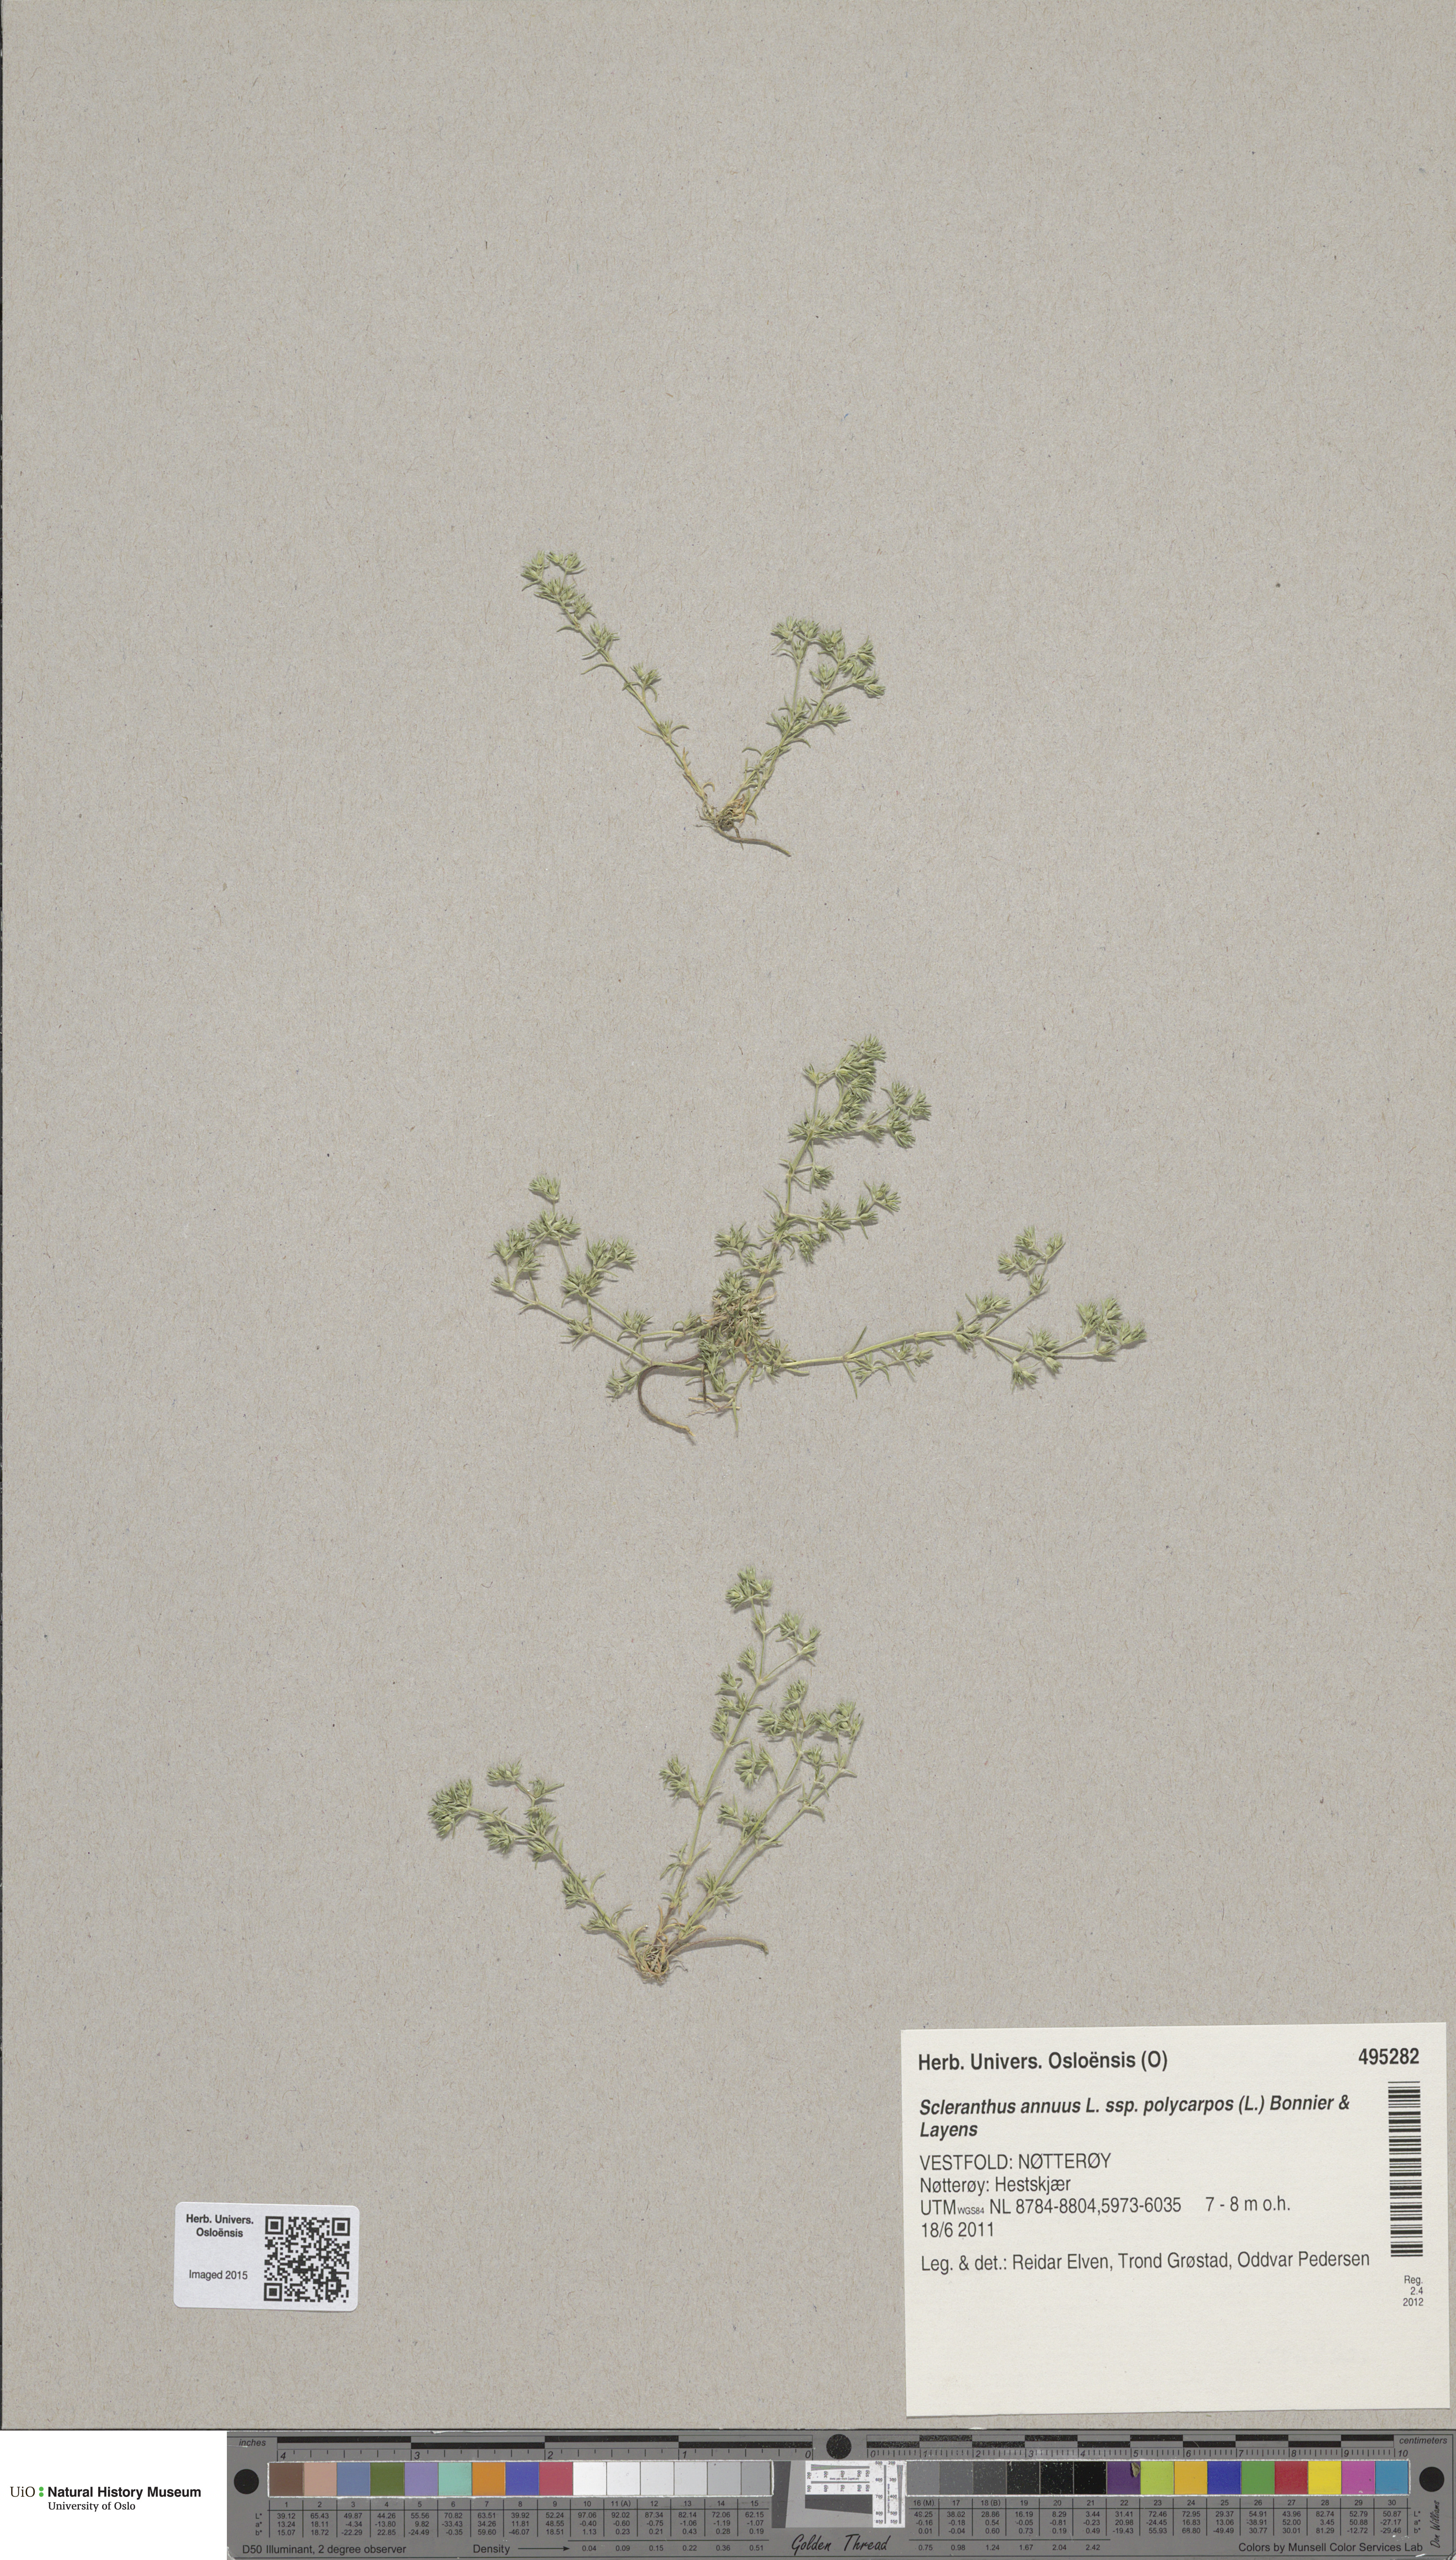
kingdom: Plantae
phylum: Tracheophyta
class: Magnoliopsida
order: Caryophyllales
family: Caryophyllaceae
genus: Scleranthus
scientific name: Scleranthus annuus
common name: Annual knawel
